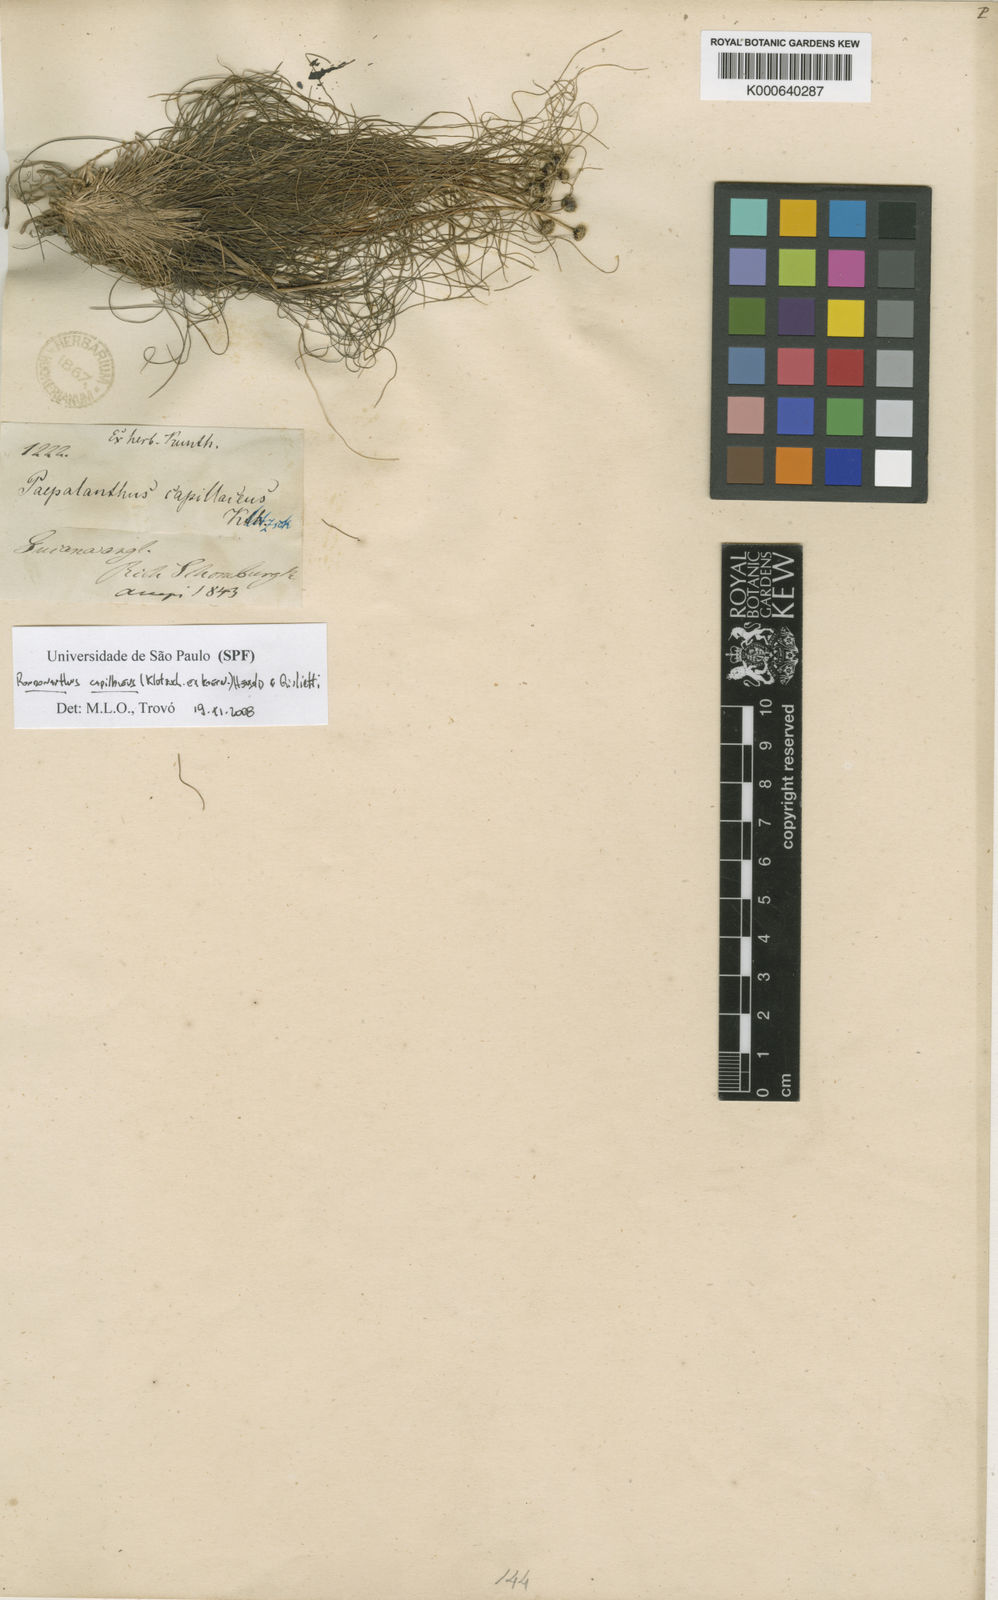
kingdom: Plantae
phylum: Tracheophyta
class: Liliopsida
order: Poales
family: Eriocaulaceae
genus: Rondonanthus
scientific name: Rondonanthus
